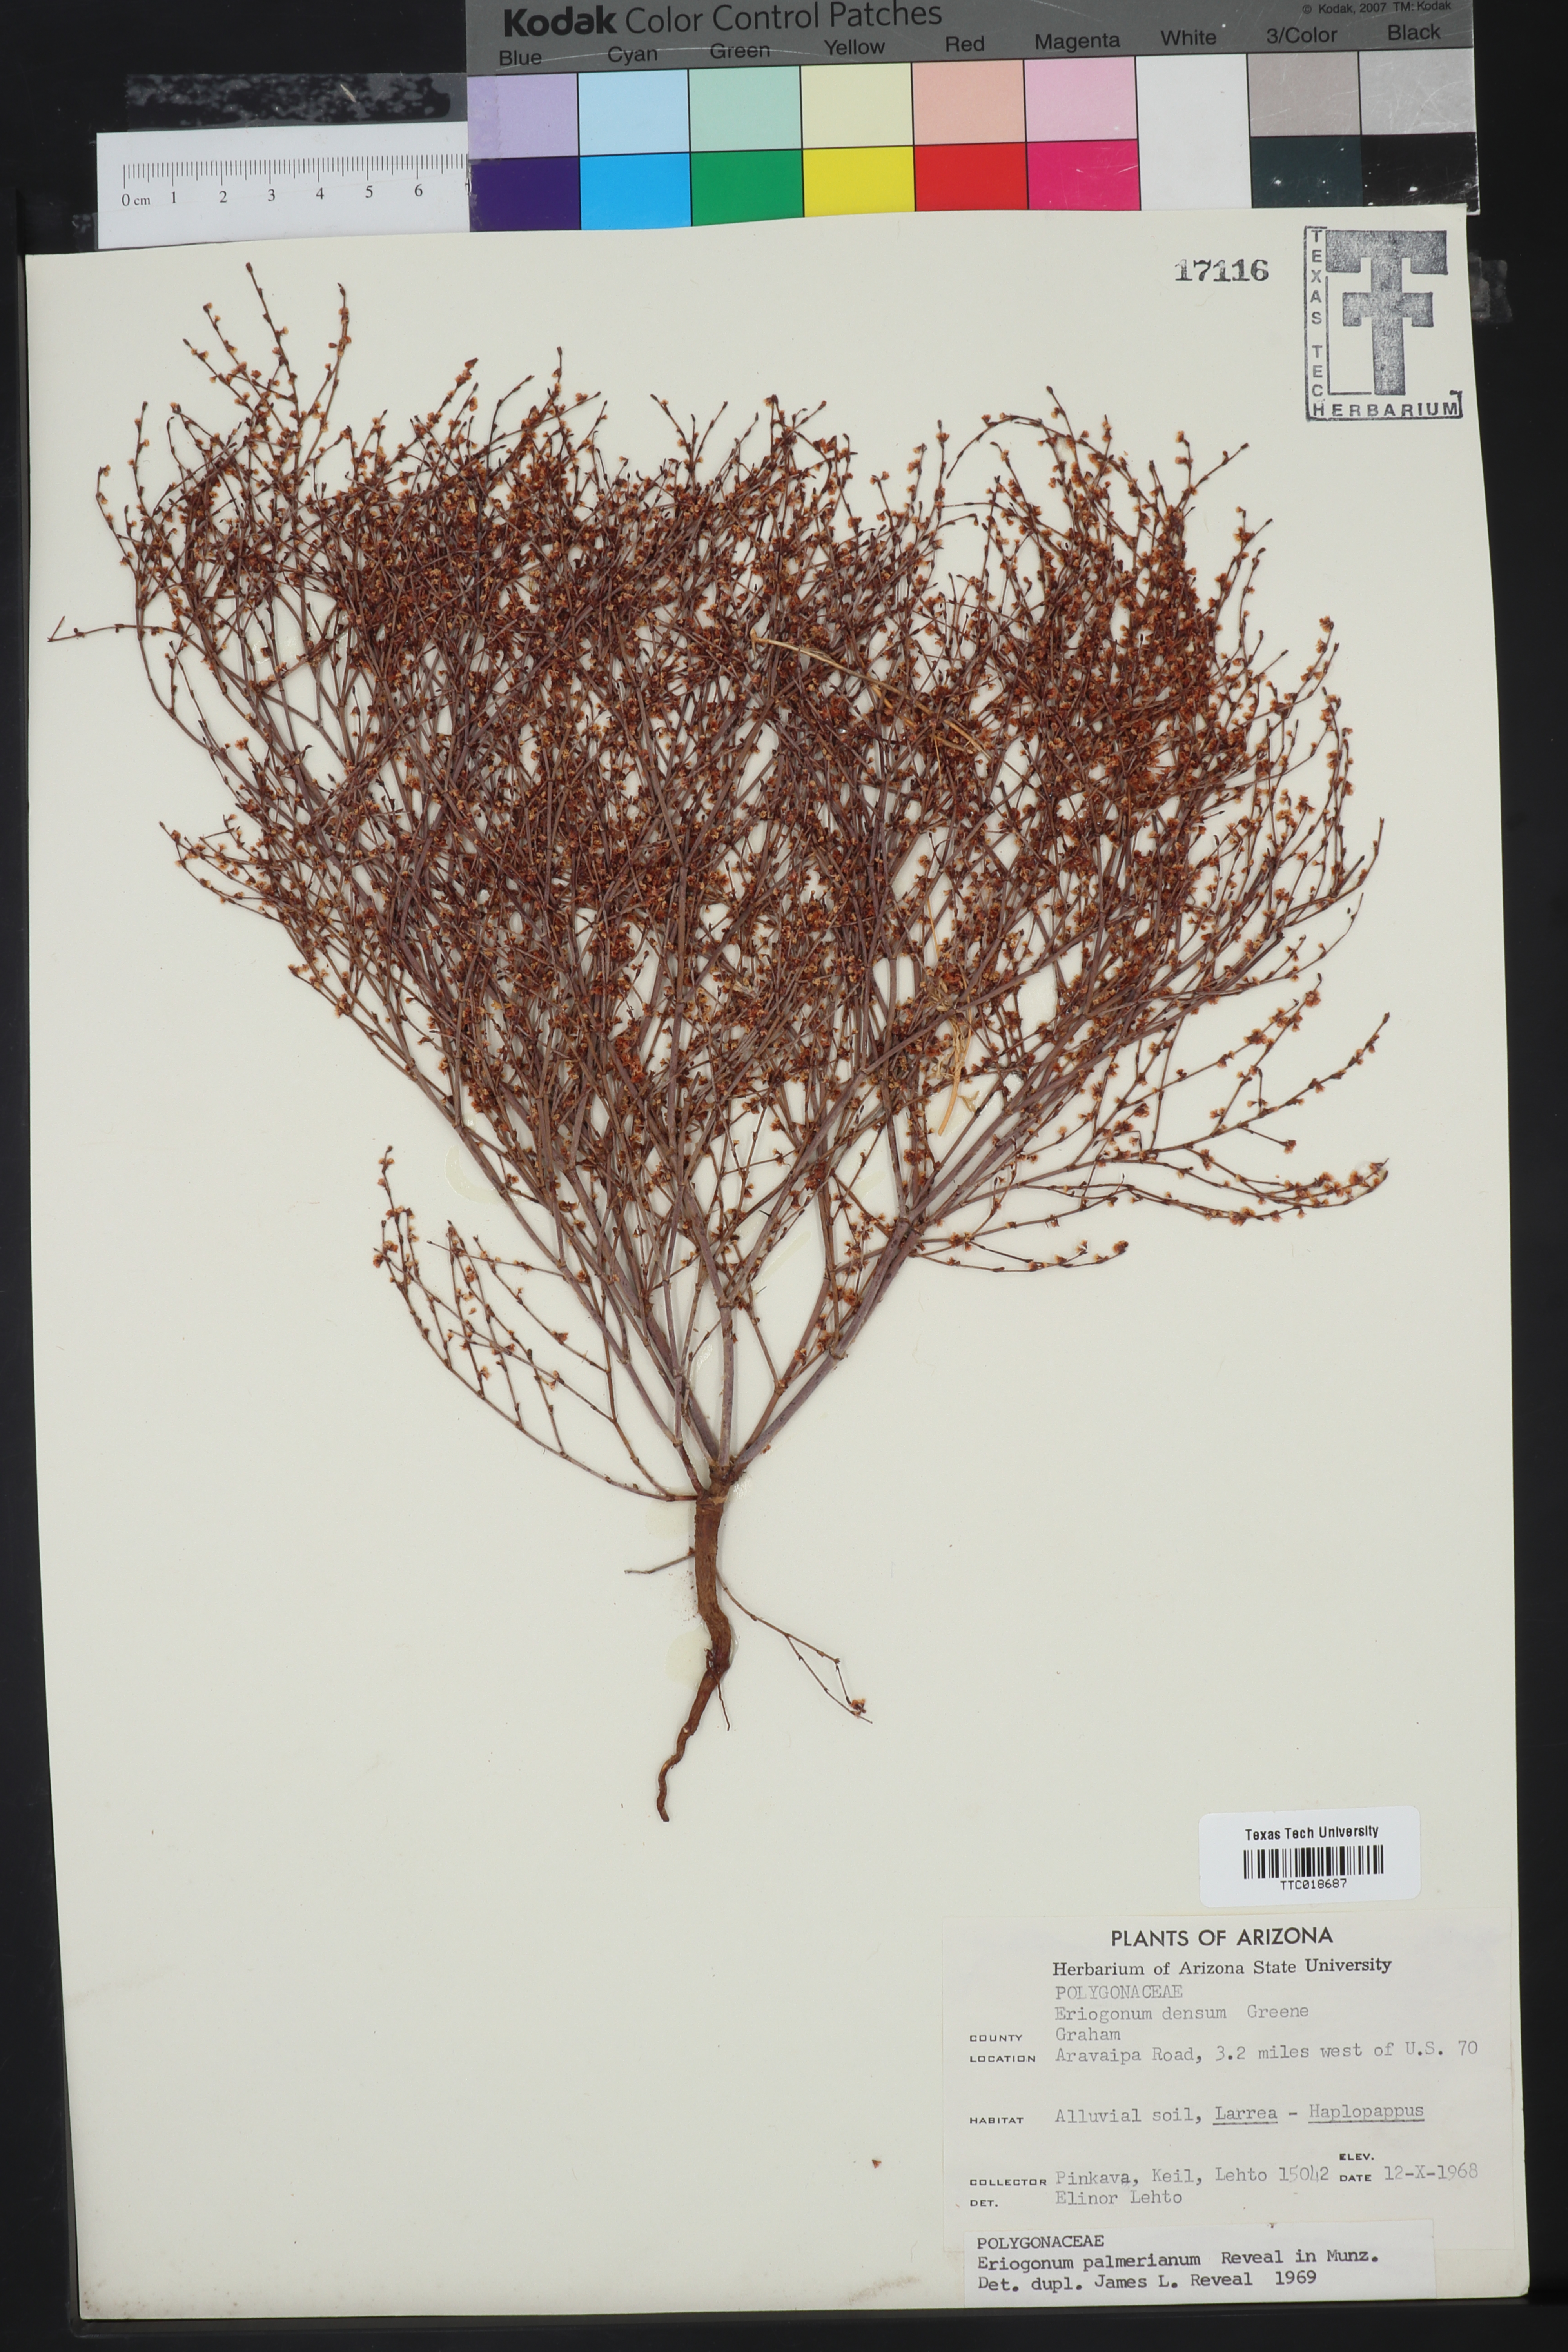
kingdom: Plantae
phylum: Tracheophyta
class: Magnoliopsida
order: Caryophyllales
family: Polygonaceae
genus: Eriogonum
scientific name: Eriogonum palmerianum
